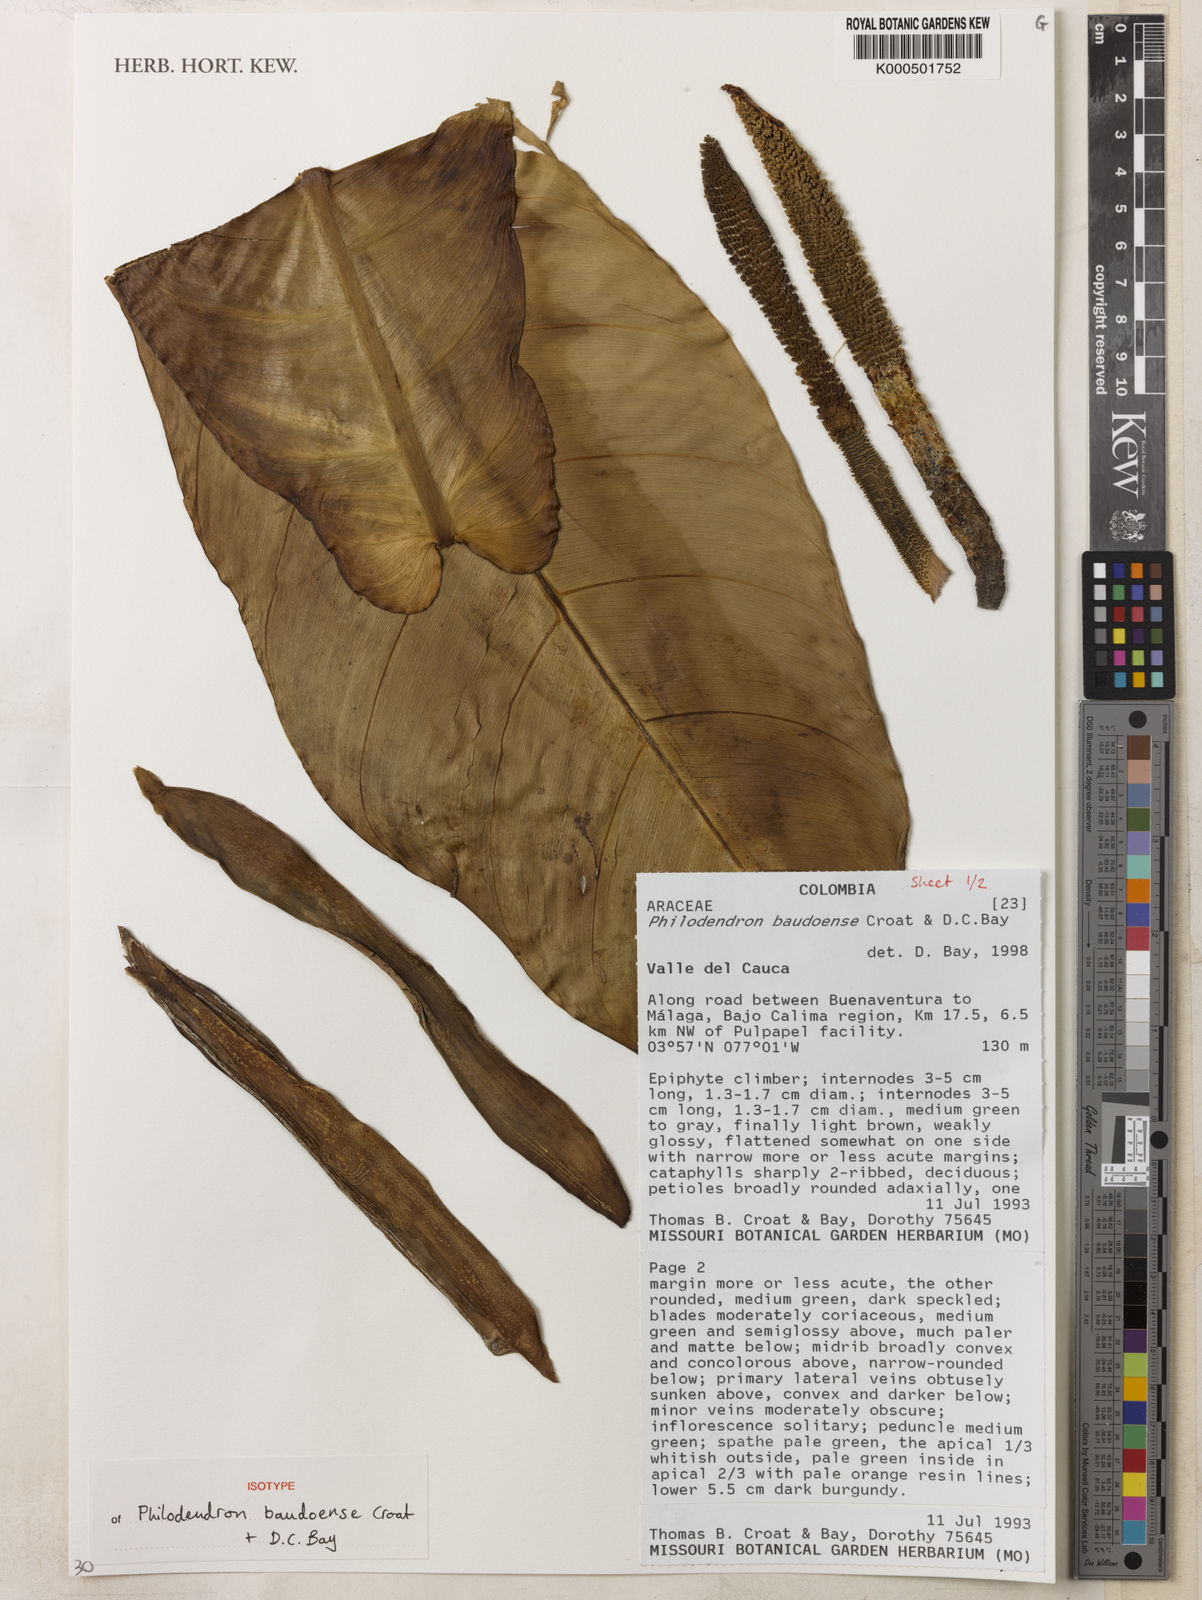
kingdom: Plantae
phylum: Tracheophyta
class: Liliopsida
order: Alismatales
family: Araceae
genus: Philodendron
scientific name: Philodendron baudoense
